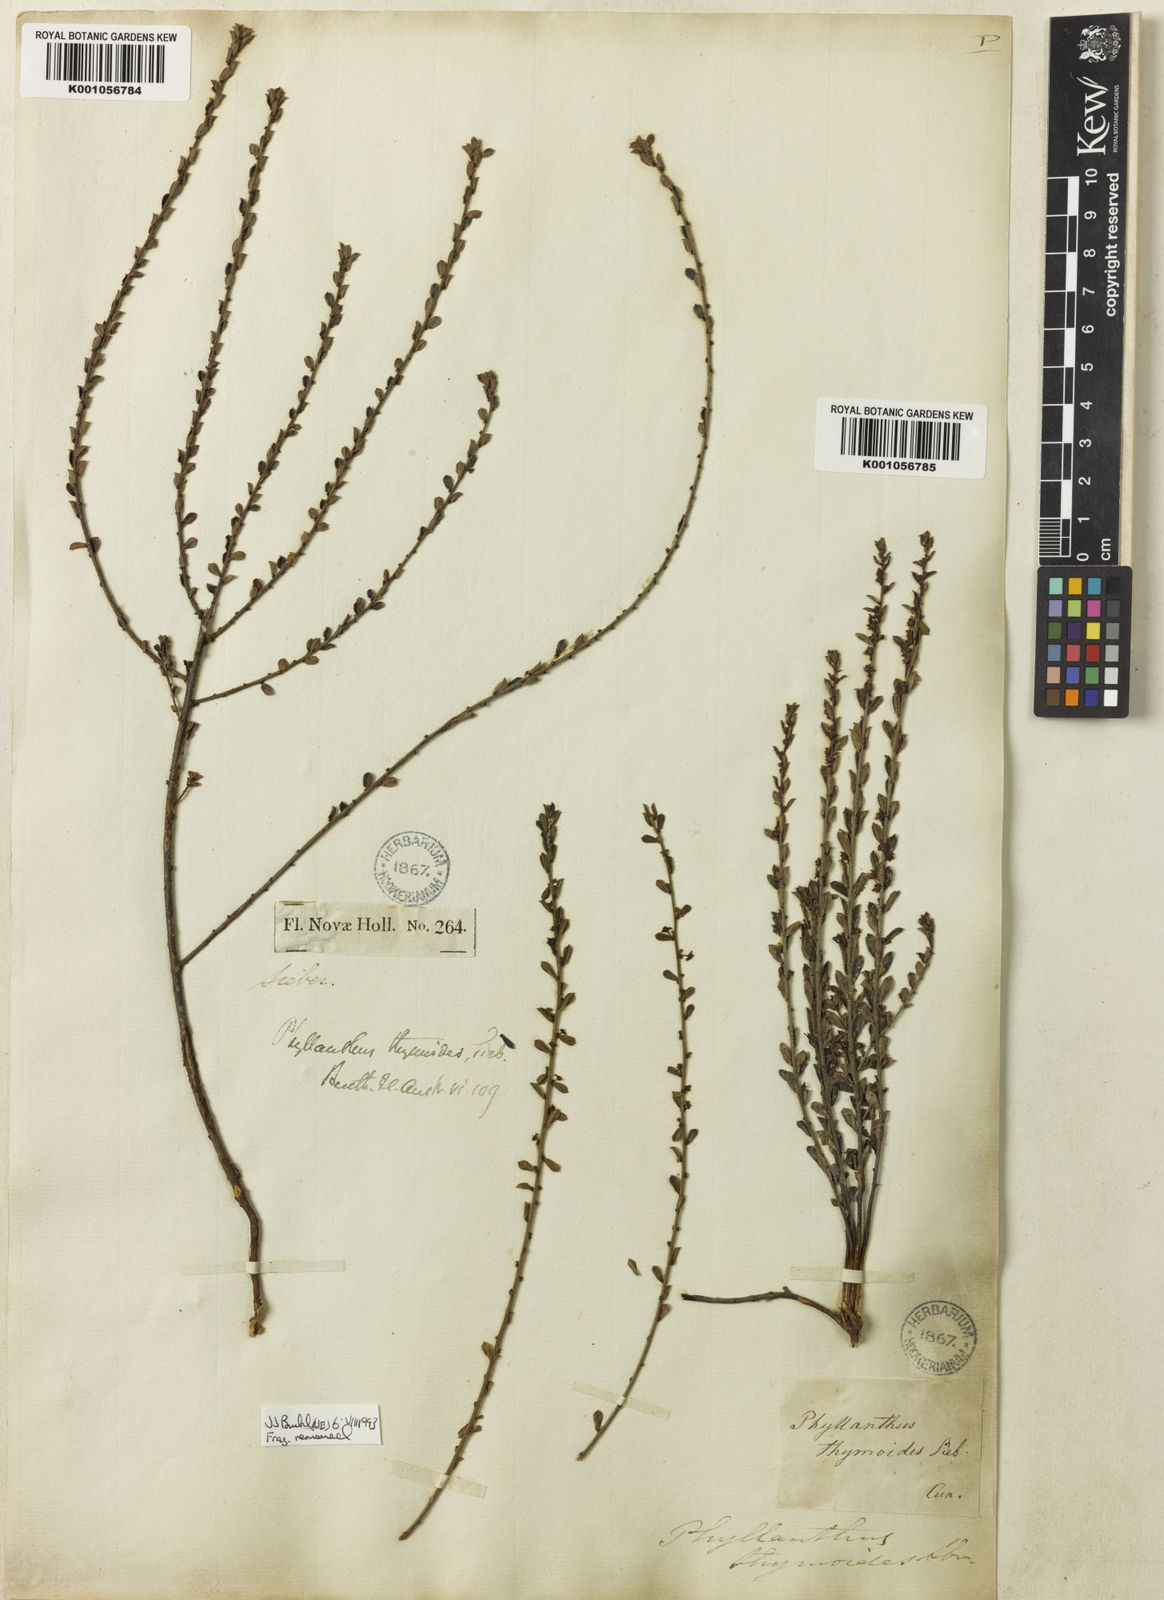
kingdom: Plantae
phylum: Tracheophyta
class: Magnoliopsida
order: Malpighiales
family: Phyllanthaceae
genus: Phyllanthus
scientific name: Phyllanthus
